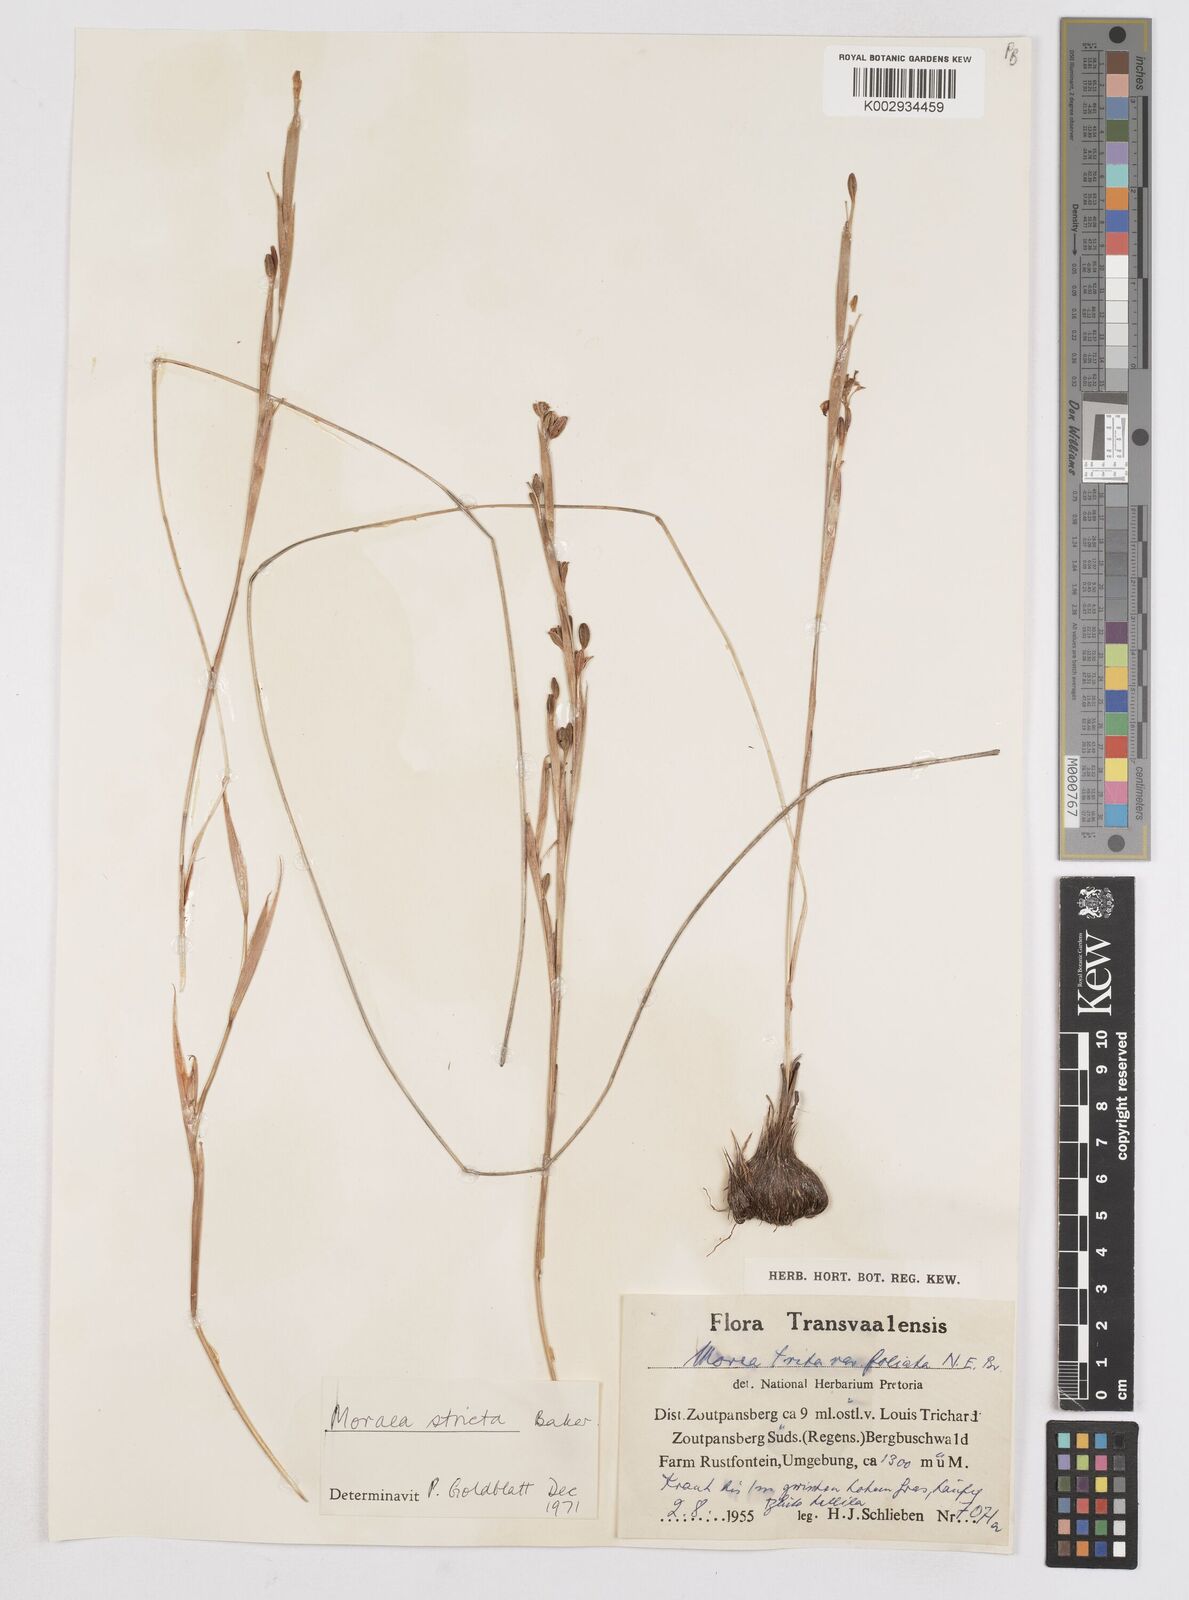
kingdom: Plantae
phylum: Tracheophyta
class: Liliopsida
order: Asparagales
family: Iridaceae
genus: Moraea
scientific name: Moraea stricta
